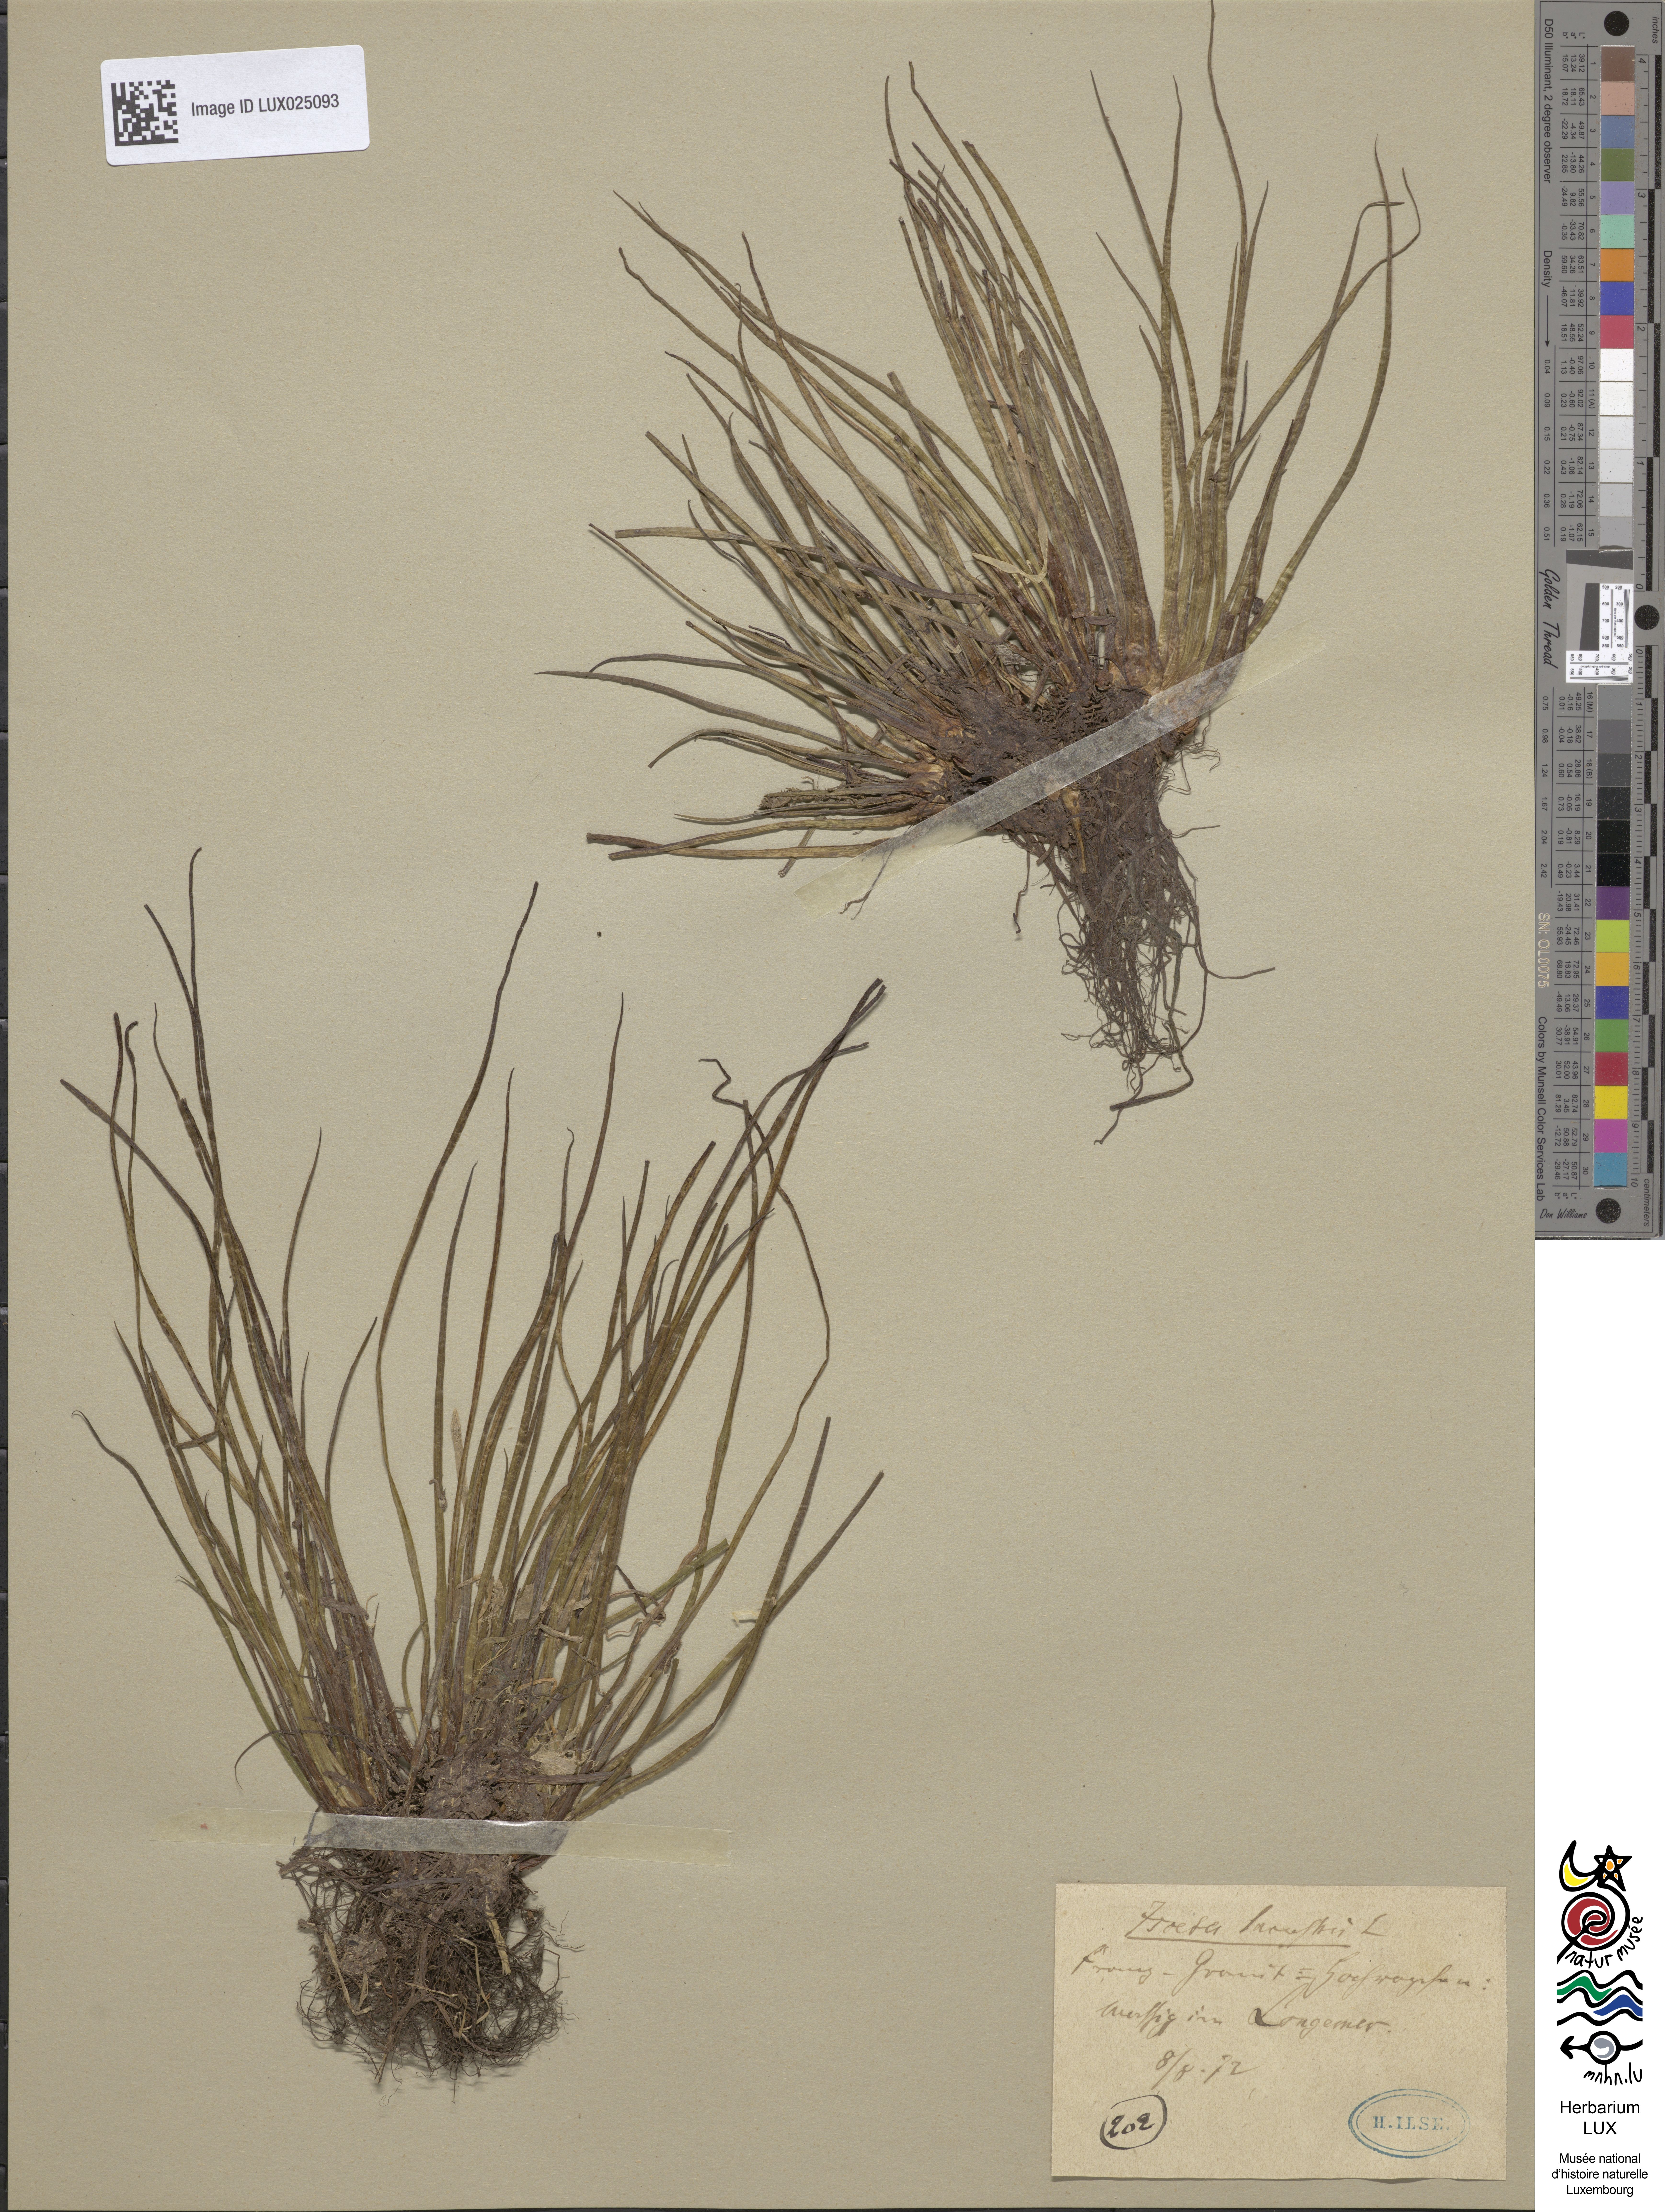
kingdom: Plantae
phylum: Tracheophyta
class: Lycopodiopsida
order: Isoetales
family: Isoetaceae
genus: Isoetes
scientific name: Isoetes lacustris
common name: Common quillwort
